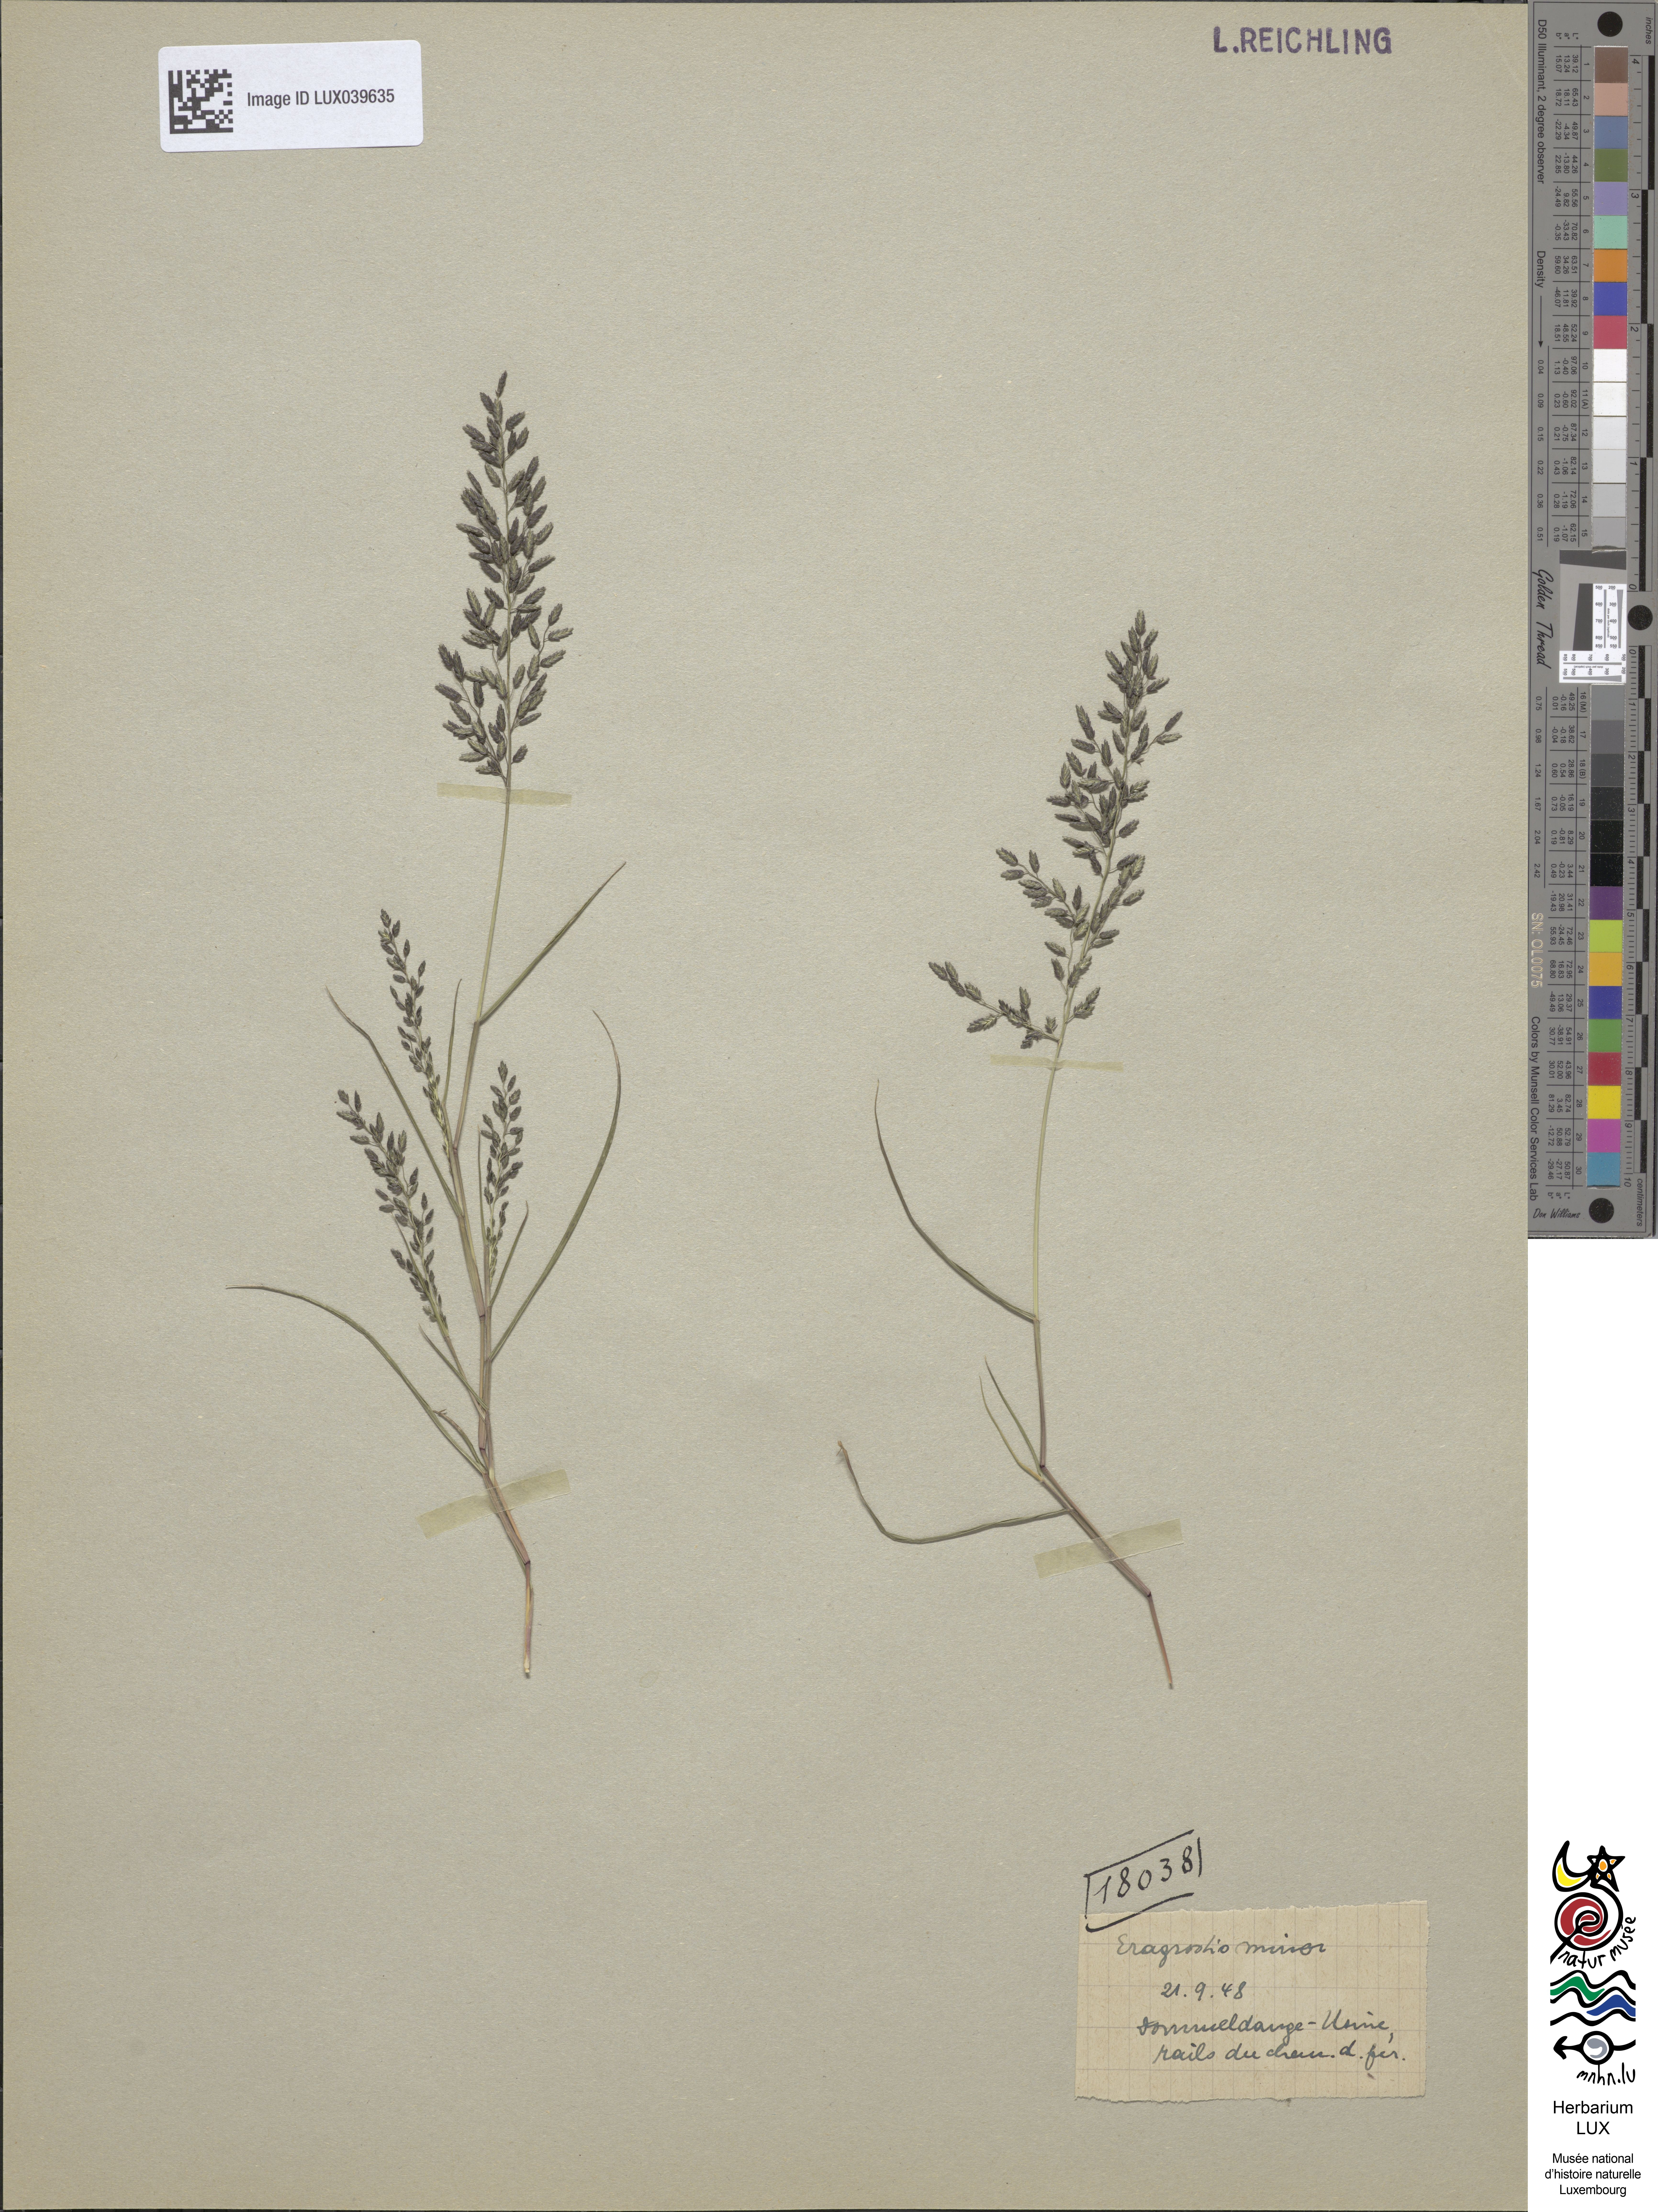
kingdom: Plantae
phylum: Tracheophyta
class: Liliopsida
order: Poales
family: Poaceae
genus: Eragrostis
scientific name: Eragrostis minor
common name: Small love-grass
